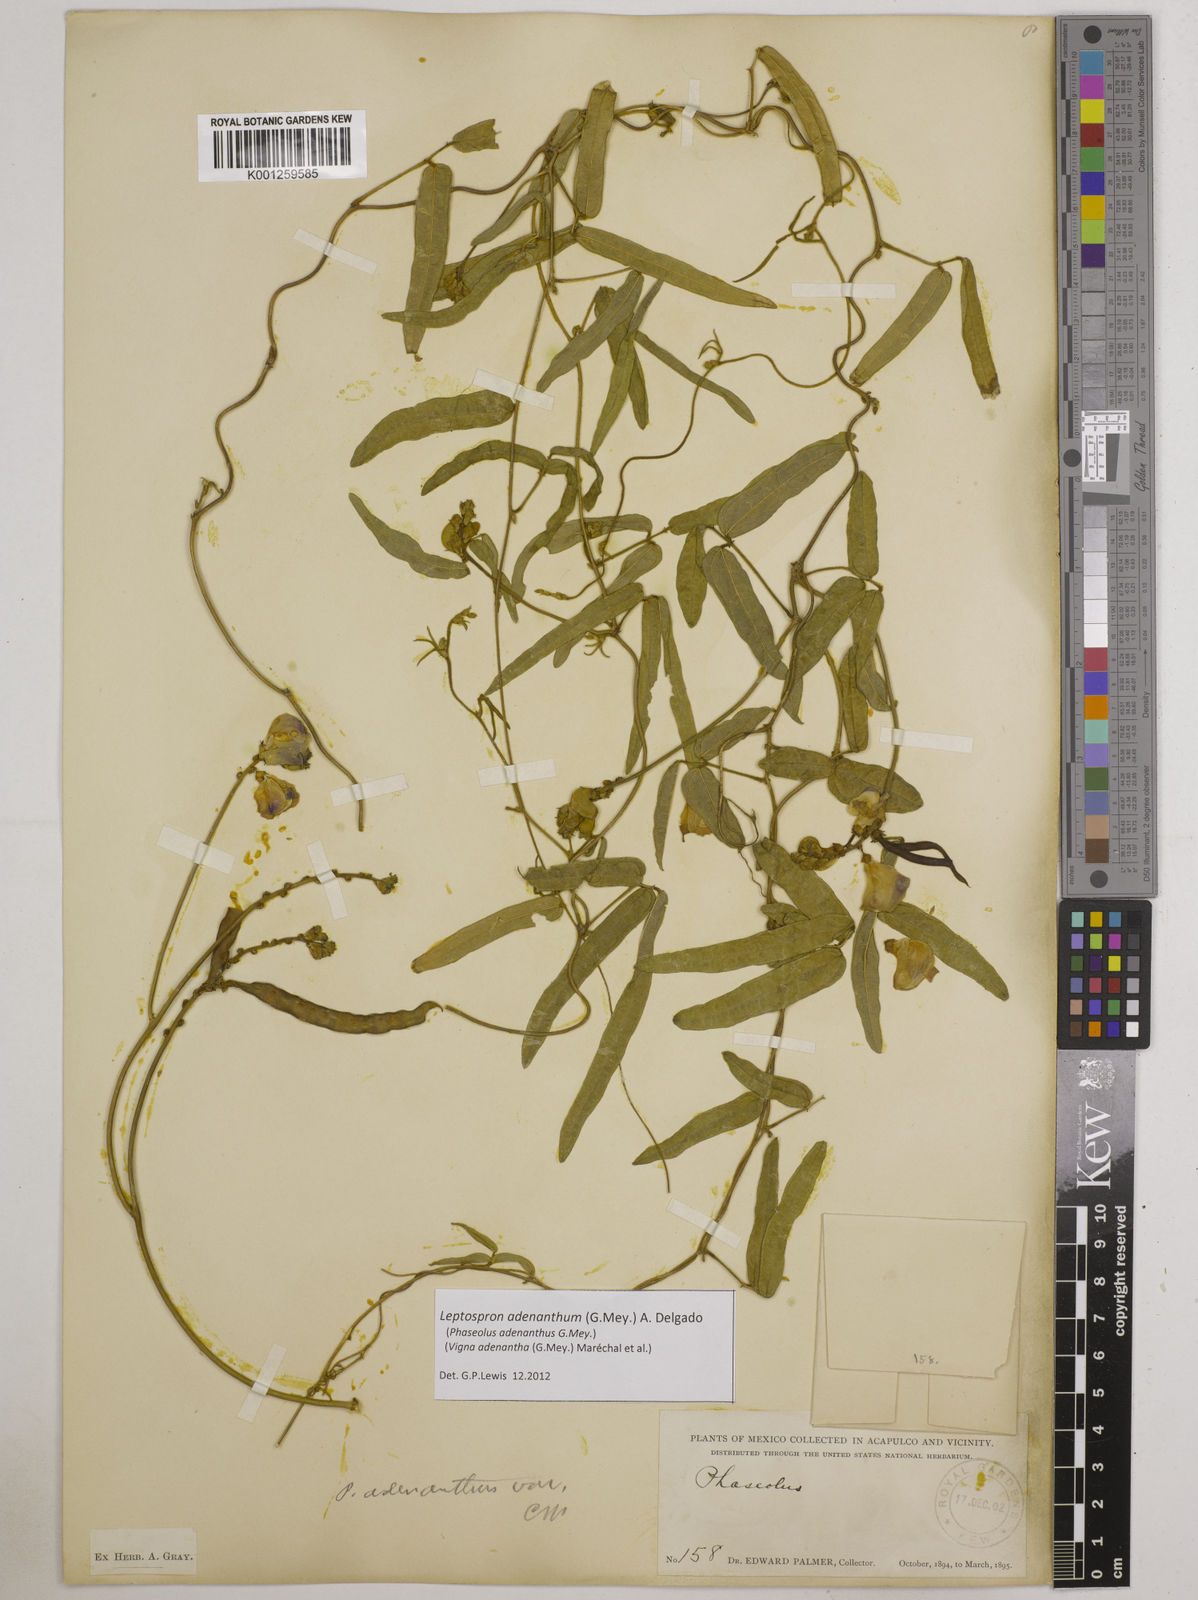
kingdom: Plantae
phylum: Tracheophyta
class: Magnoliopsida
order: Fabales
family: Fabaceae
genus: Leptospron
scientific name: Leptospron adenanthum
